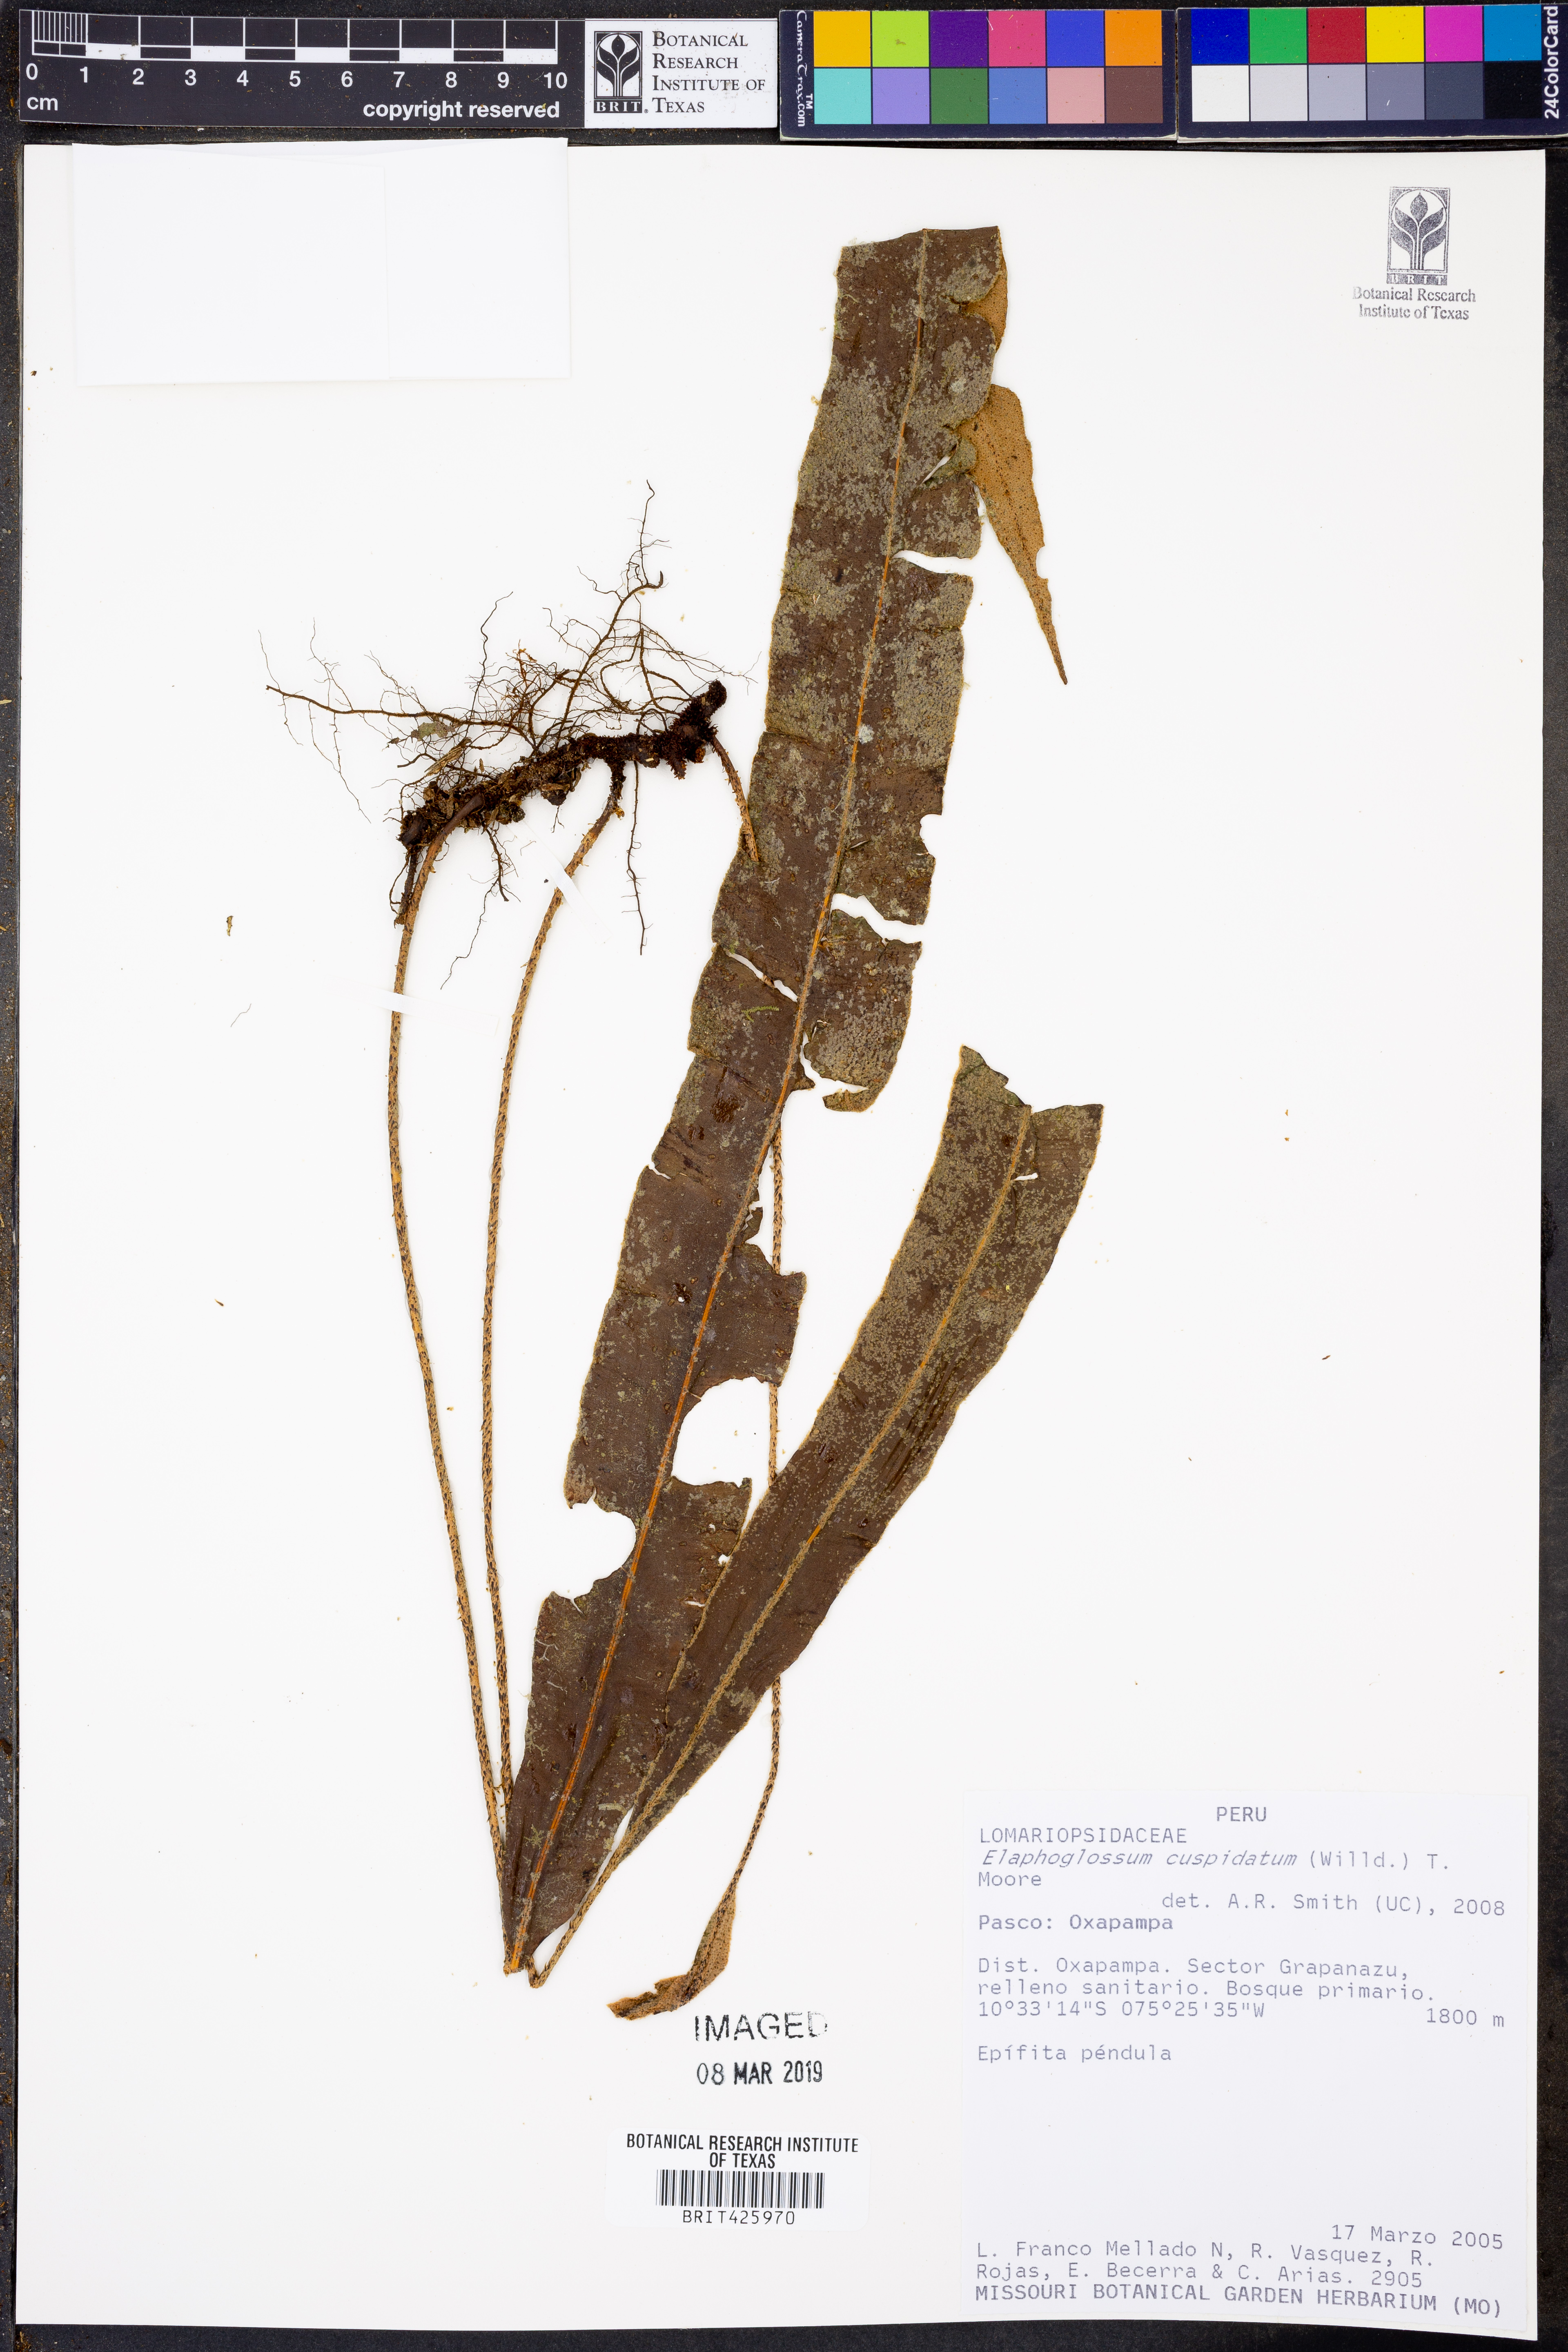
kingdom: Plantae
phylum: Tracheophyta
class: Polypodiopsida
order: Polypodiales
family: Dryopteridaceae
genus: Elaphoglossum
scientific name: Elaphoglossum cuspidatum
